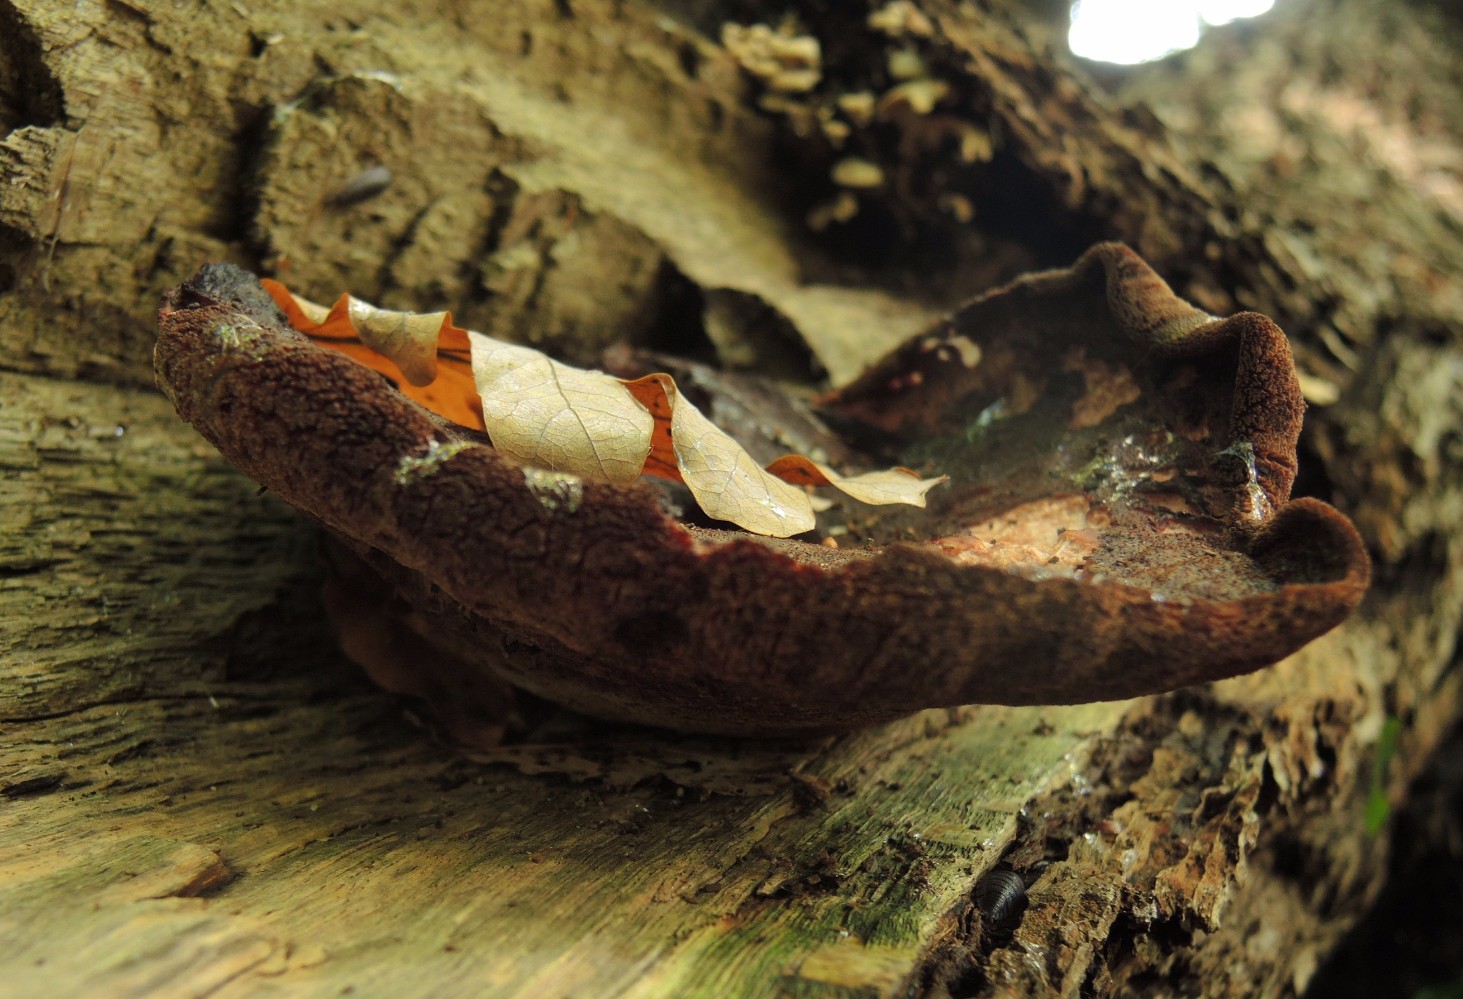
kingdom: Fungi
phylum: Basidiomycota
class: Agaricomycetes
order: Agaricales
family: Fistulinaceae
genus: Fistulina
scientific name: Fistulina hepatica
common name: oksetunge
